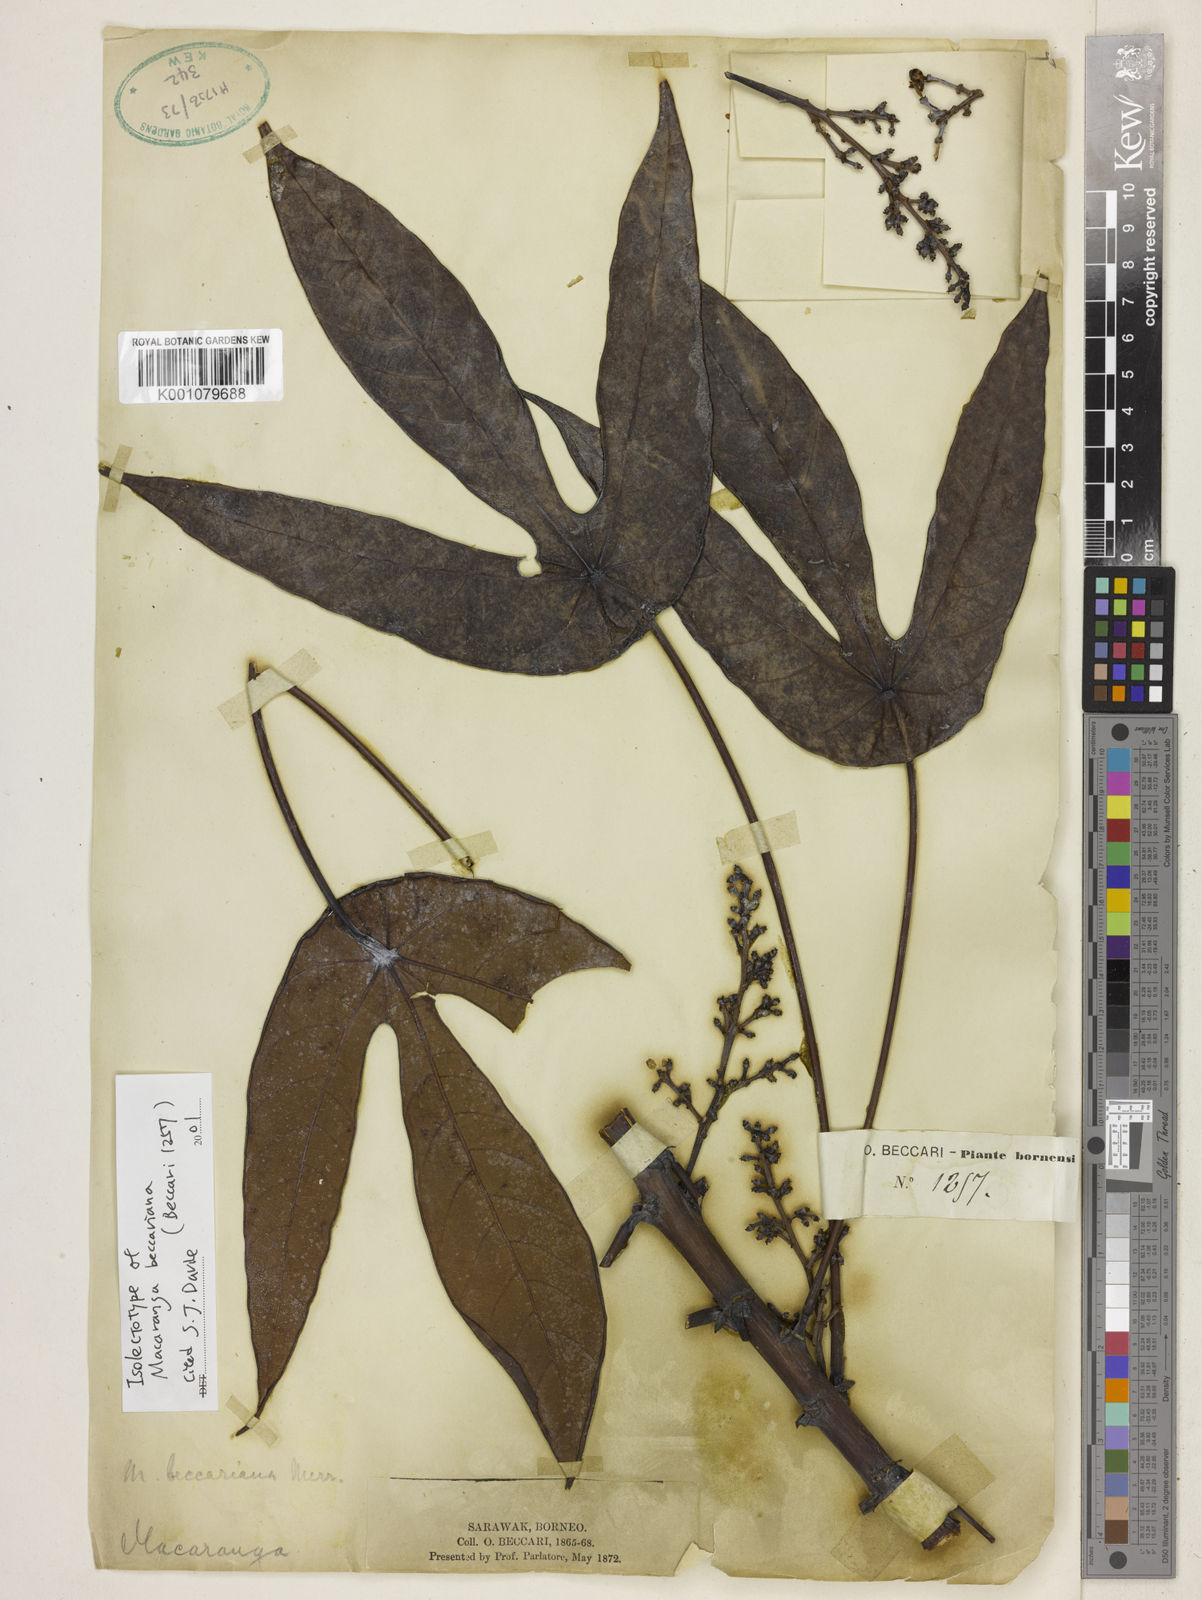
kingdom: Plantae
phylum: Tracheophyta
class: Magnoliopsida
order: Malpighiales
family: Euphorbiaceae
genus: Macaranga
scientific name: Macaranga beccariana
